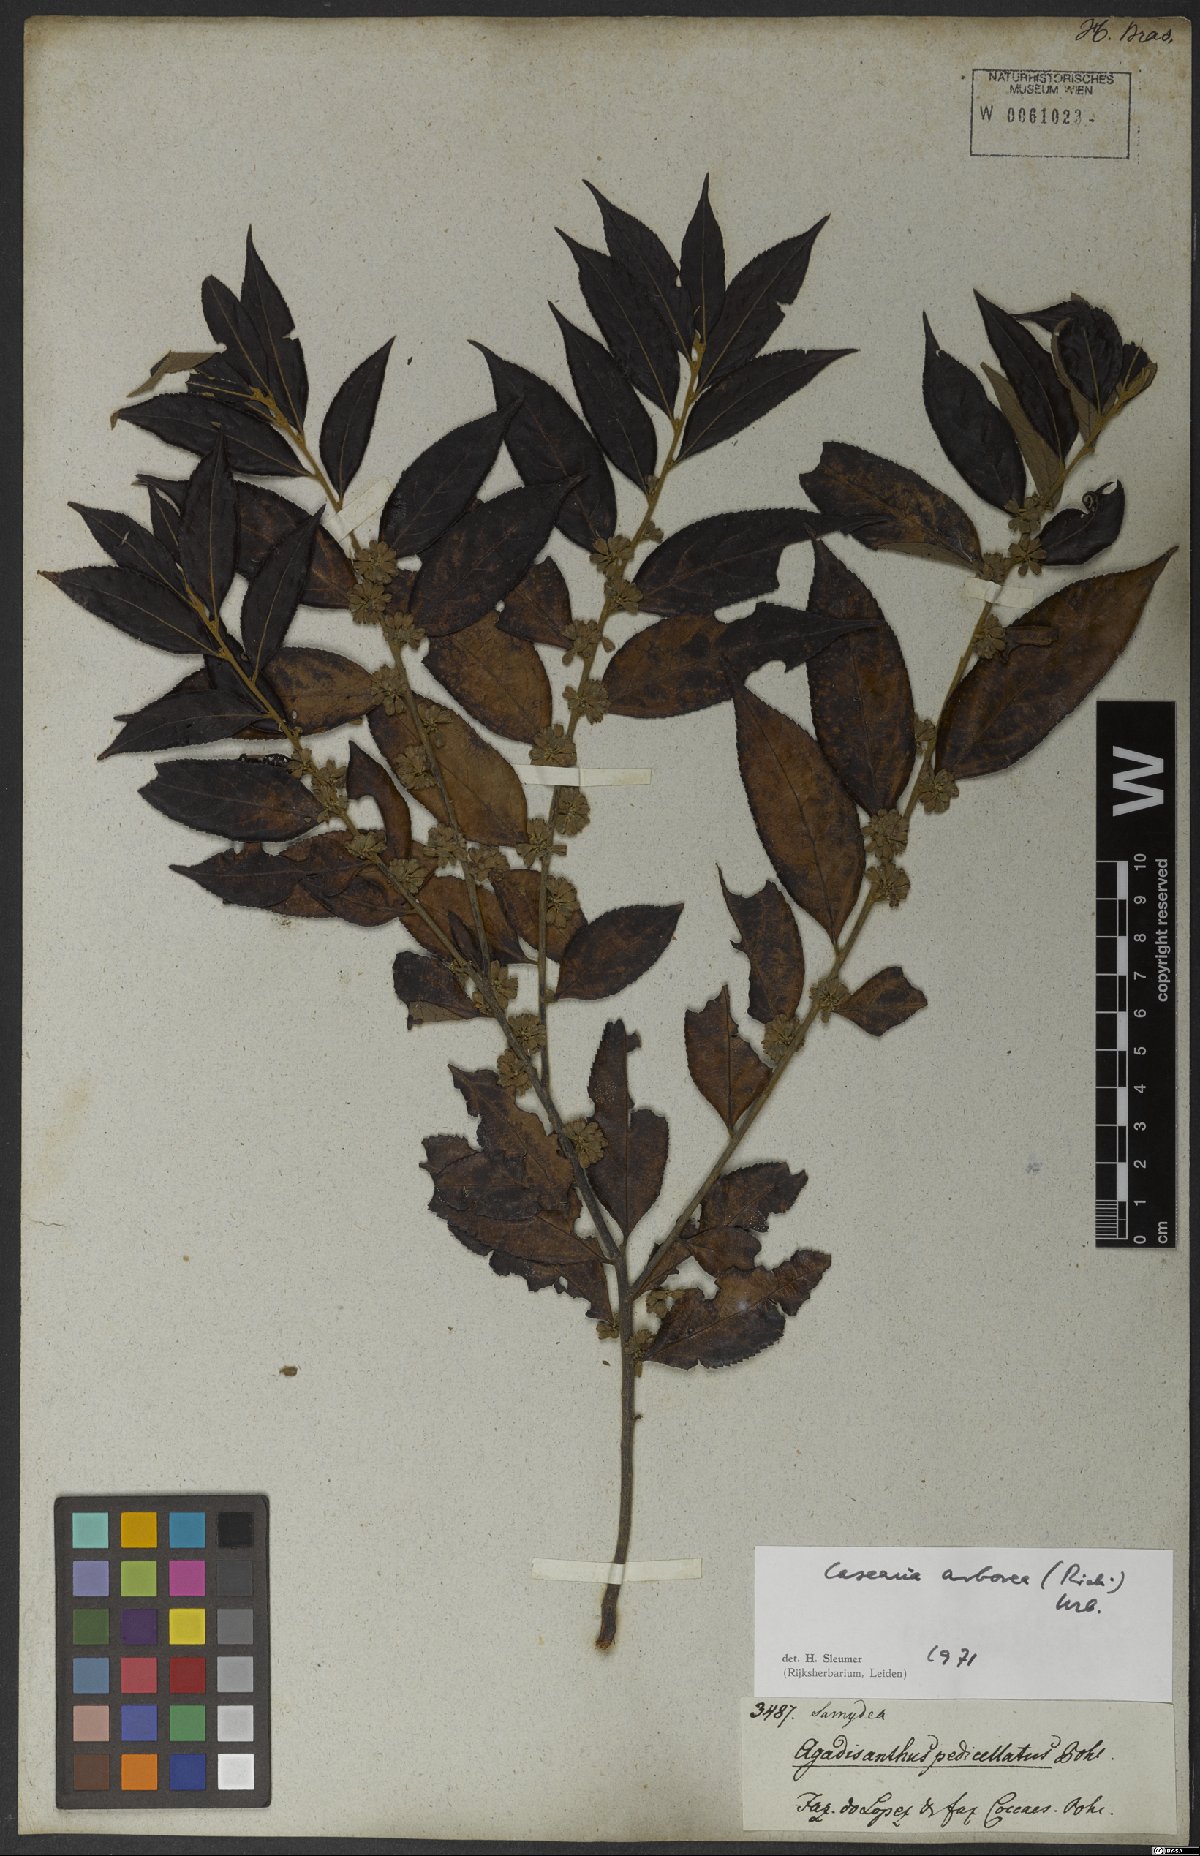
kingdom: Plantae
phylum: Tracheophyta
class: Magnoliopsida
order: Malpighiales
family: Salicaceae
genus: Casearia
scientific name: Casearia arborea
